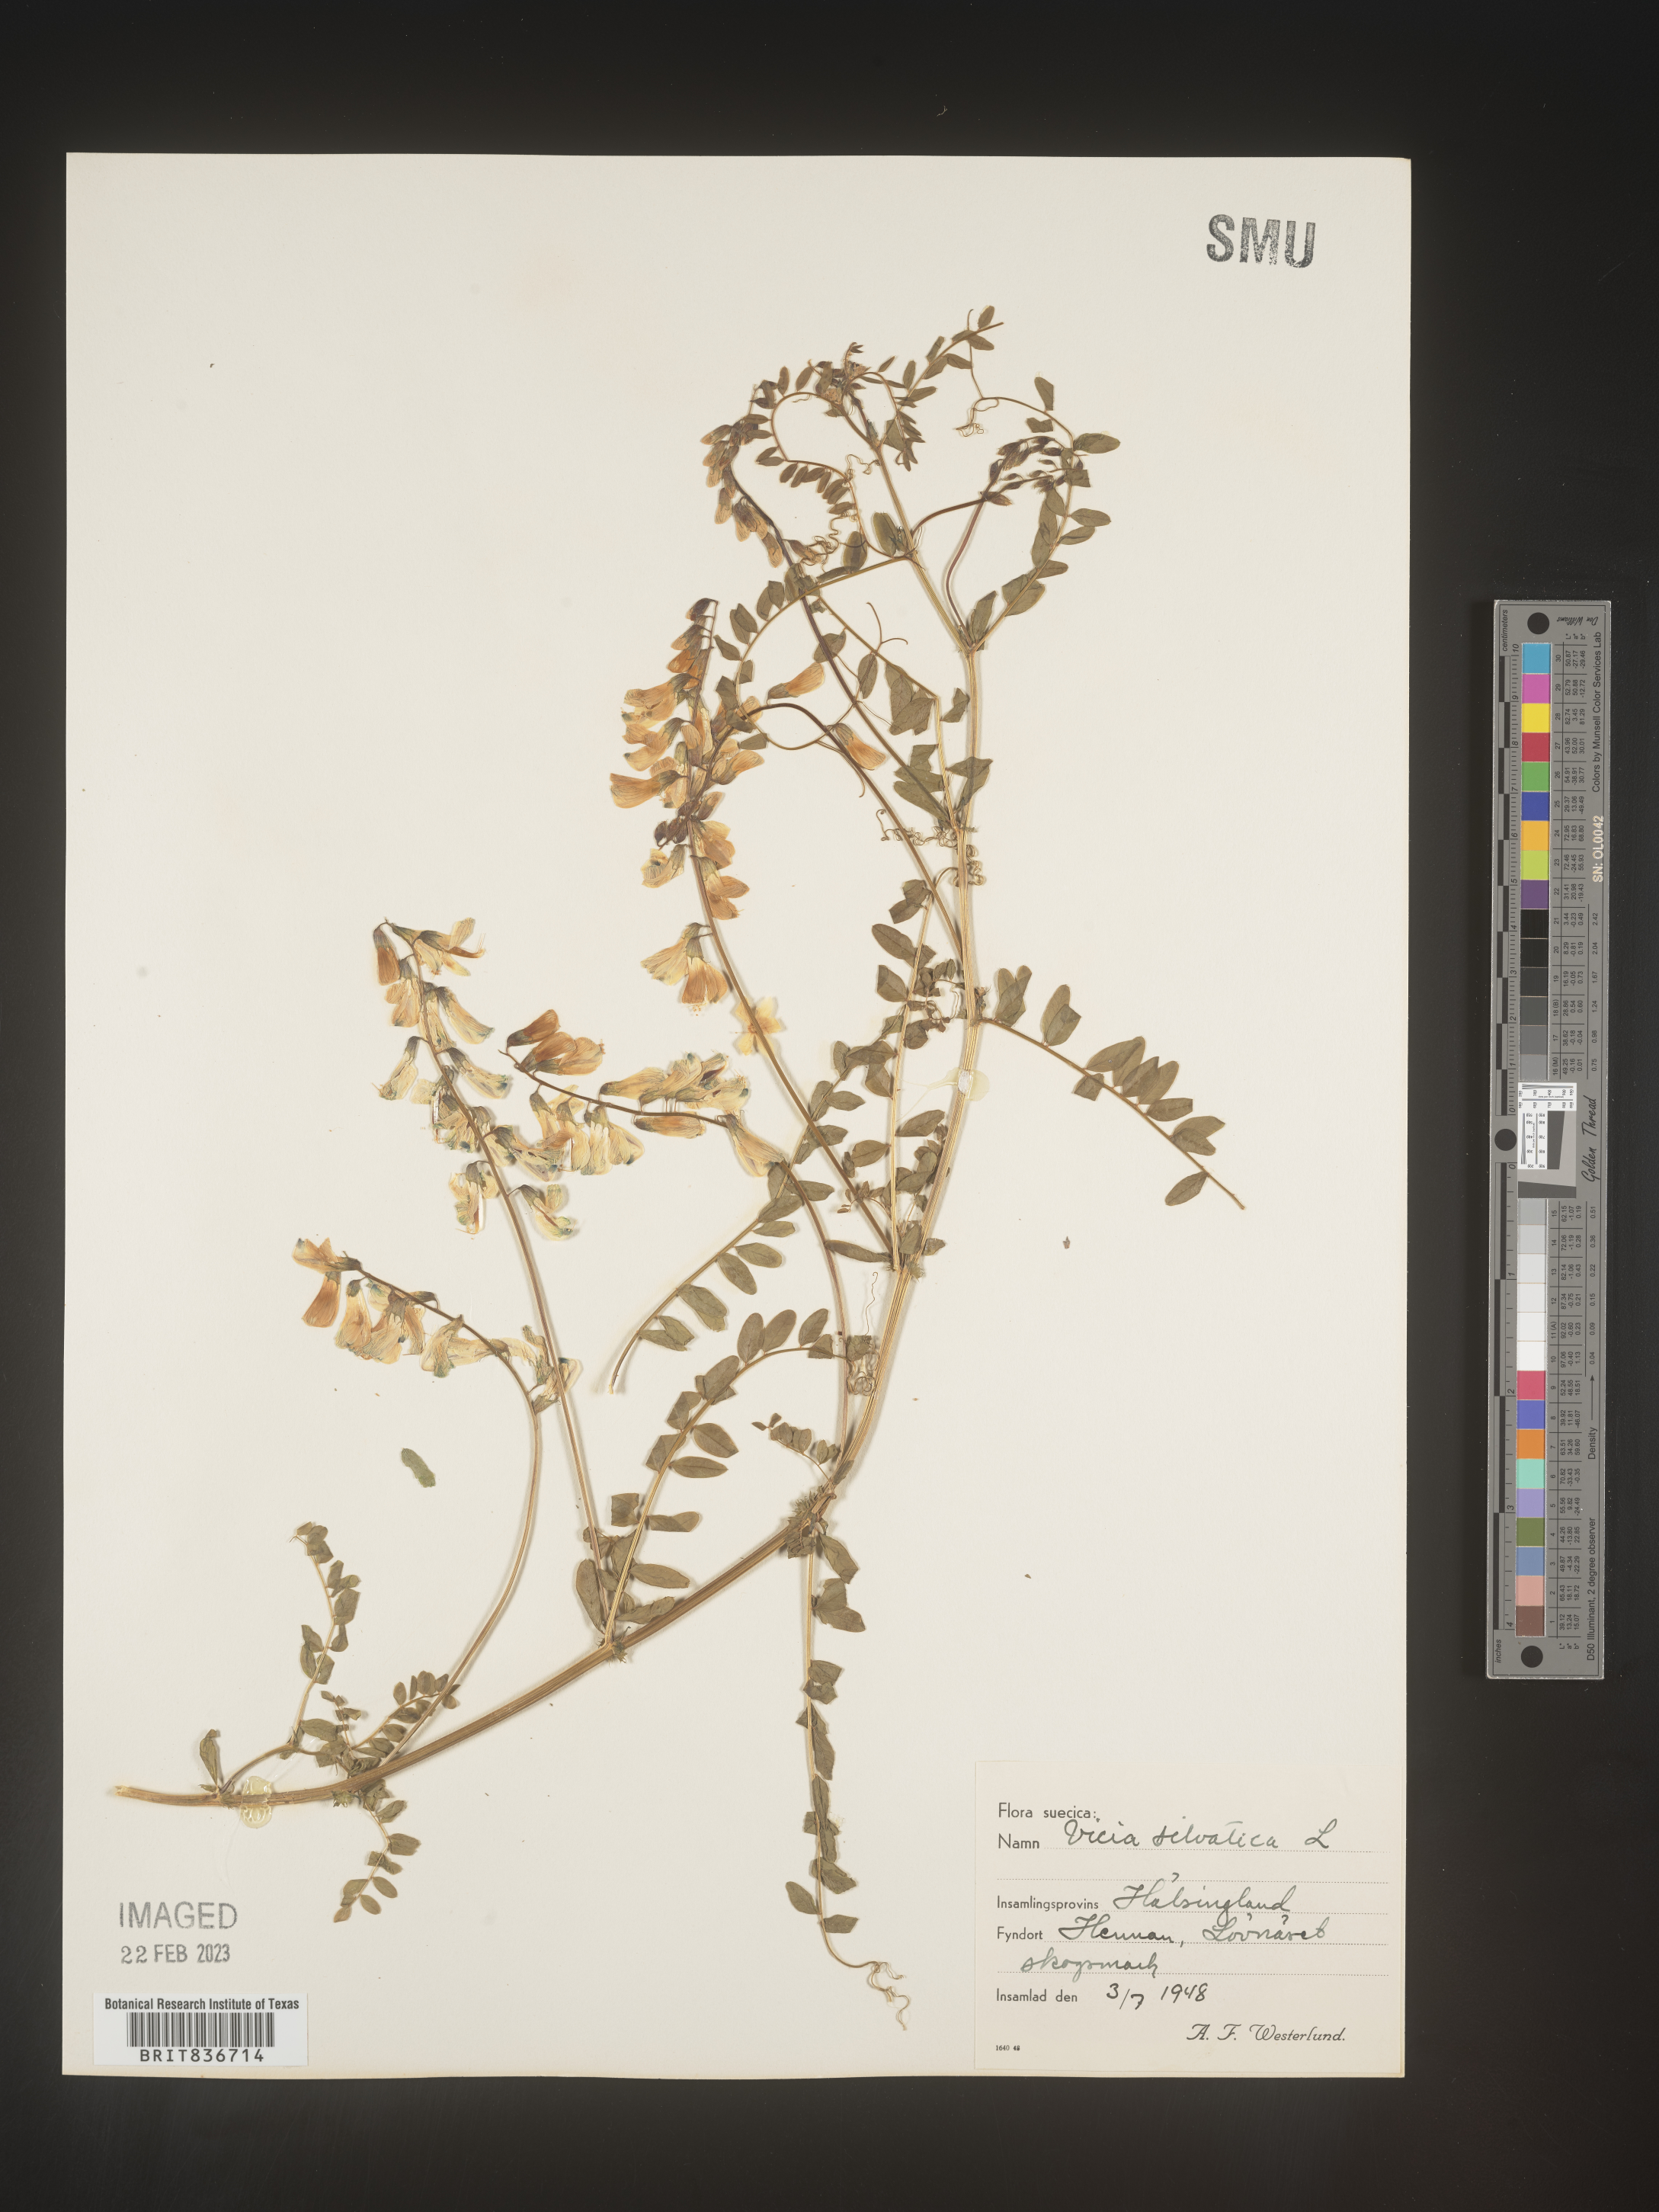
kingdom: Plantae
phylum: Tracheophyta
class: Magnoliopsida
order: Fabales
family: Fabaceae
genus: Vicia
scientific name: Vicia sylvatica
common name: Wood vetch
